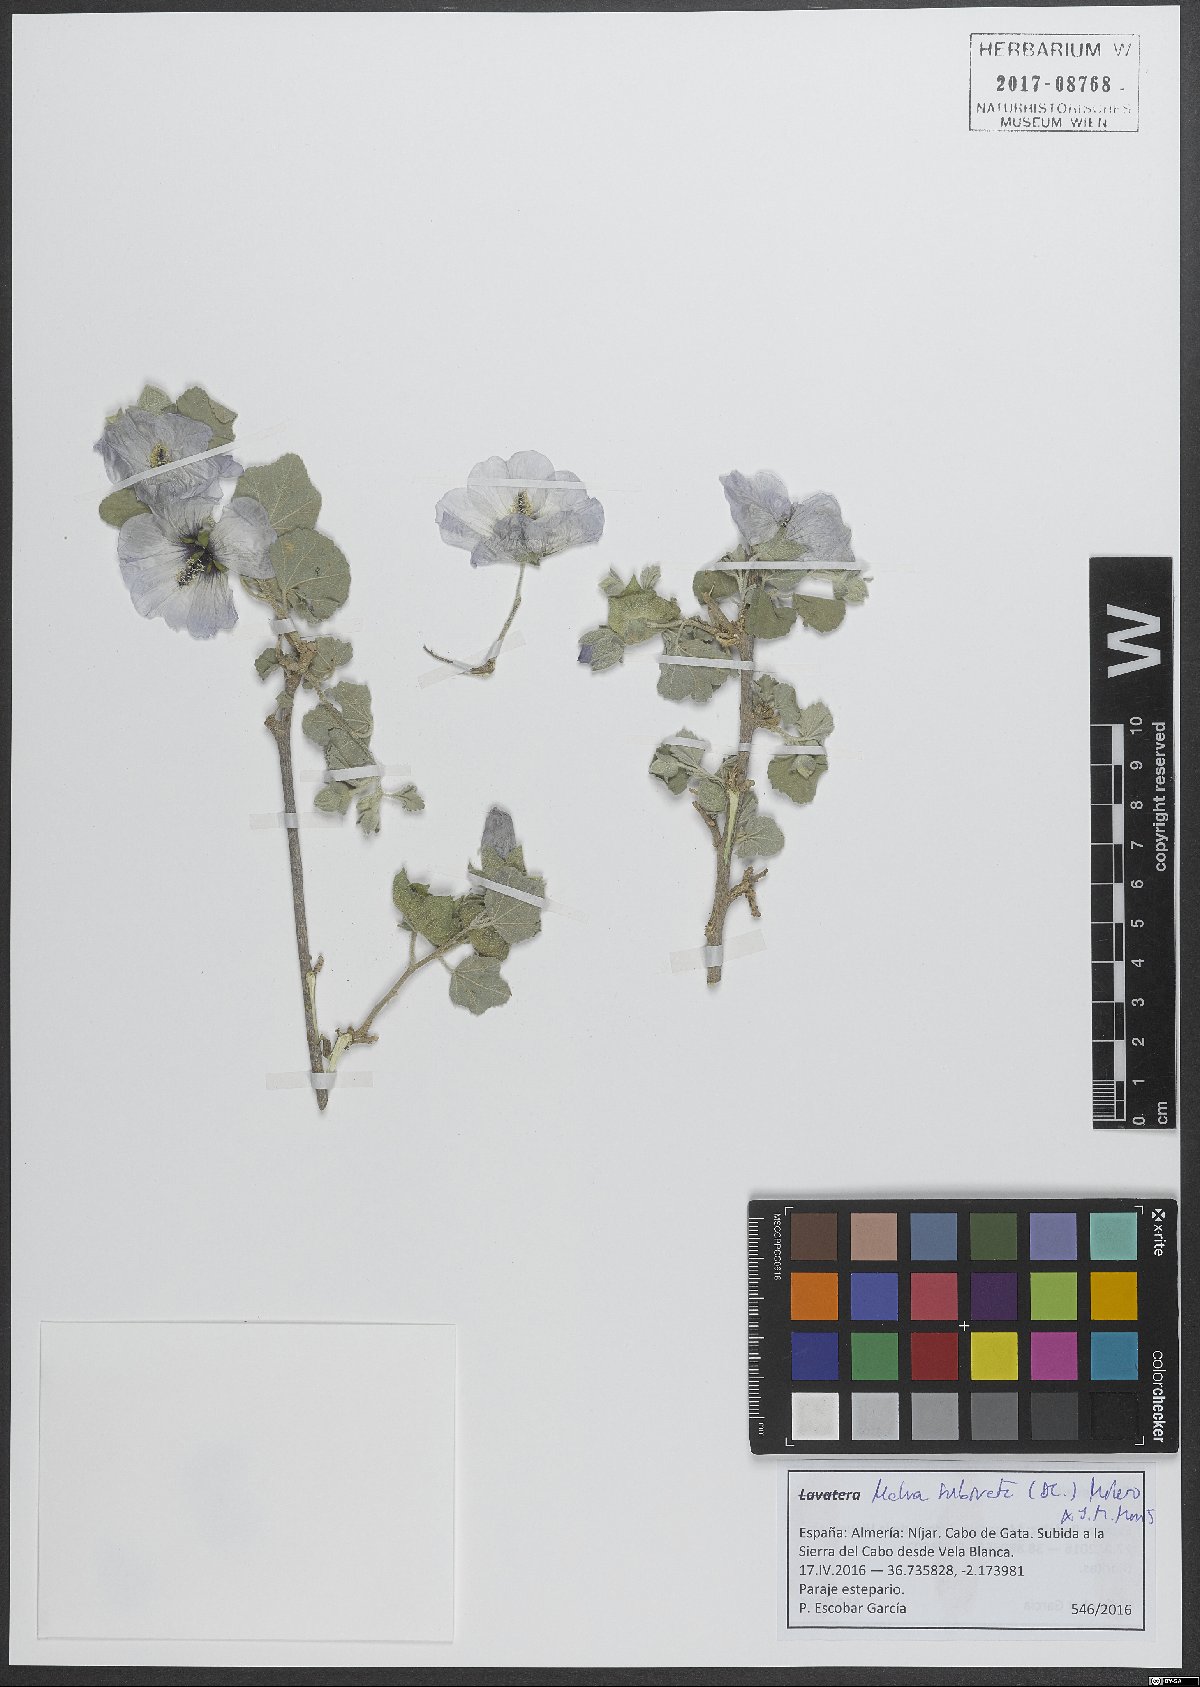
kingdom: Plantae
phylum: Tracheophyta
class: Magnoliopsida
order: Malvales
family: Malvaceae
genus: Malva
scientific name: Malva subovata
